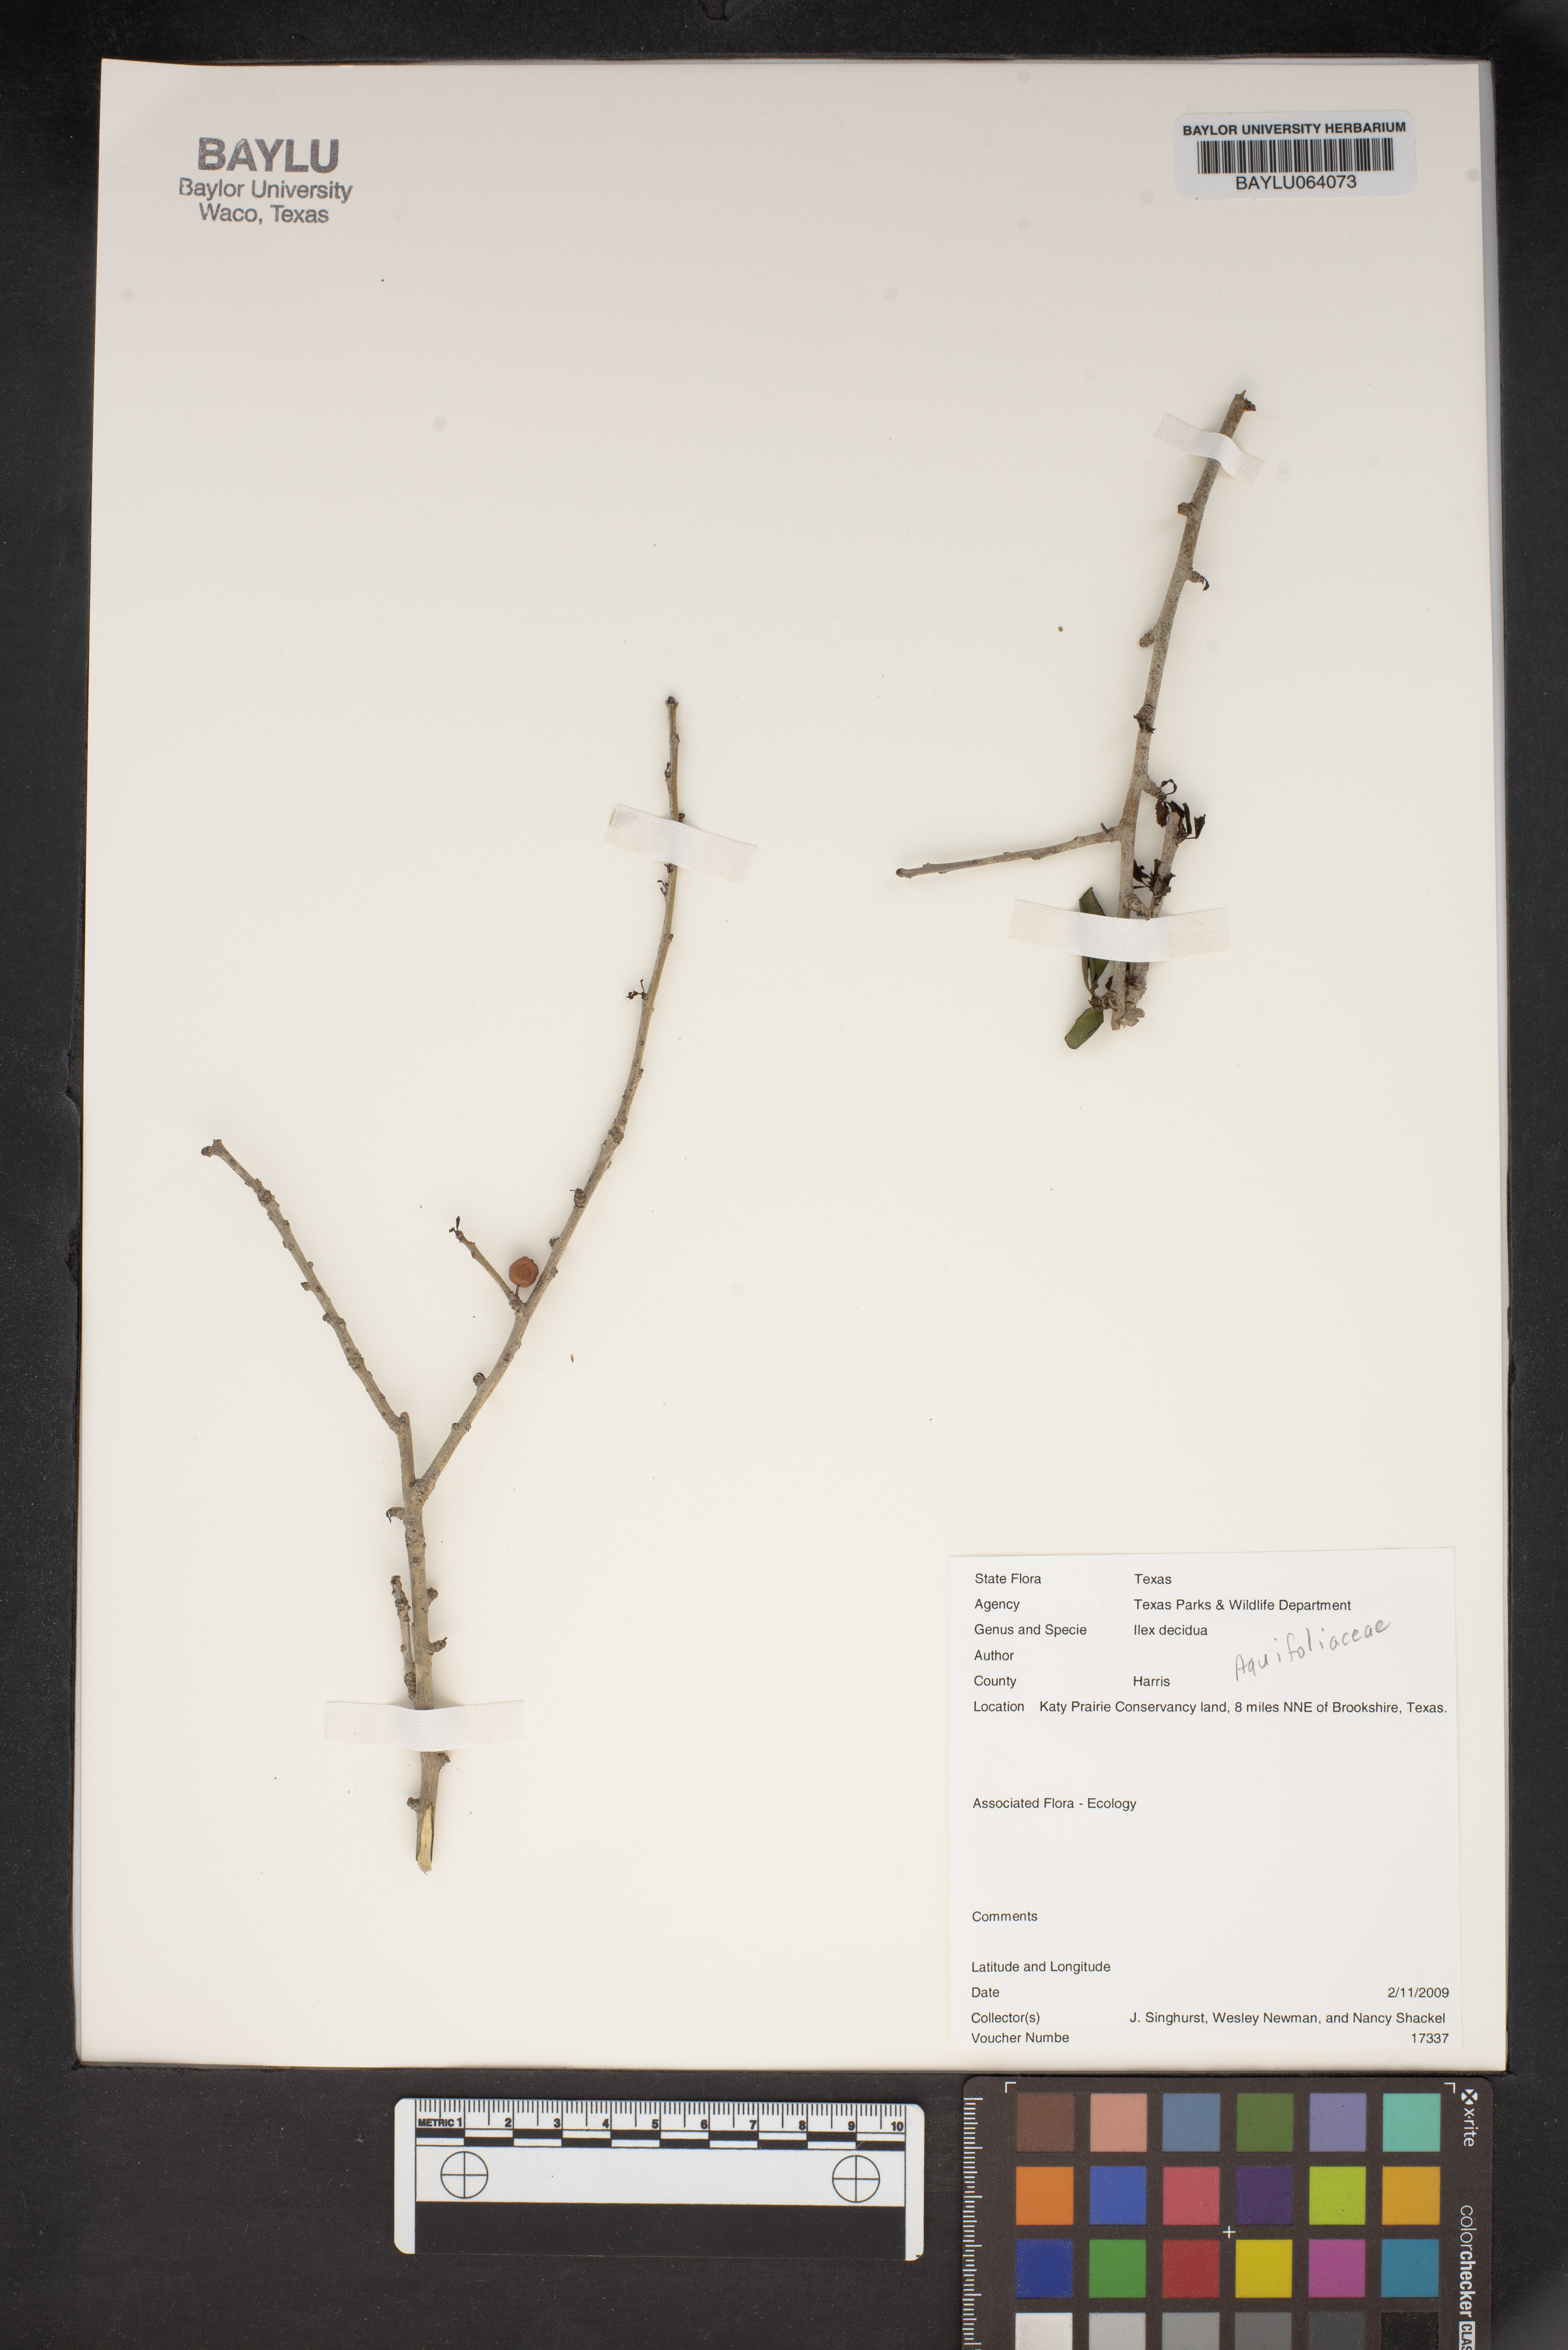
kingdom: Plantae
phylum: Tracheophyta
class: Magnoliopsida
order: Aquifoliales
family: Aquifoliaceae
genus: Ilex
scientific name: Ilex decidua
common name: Possum-haw
